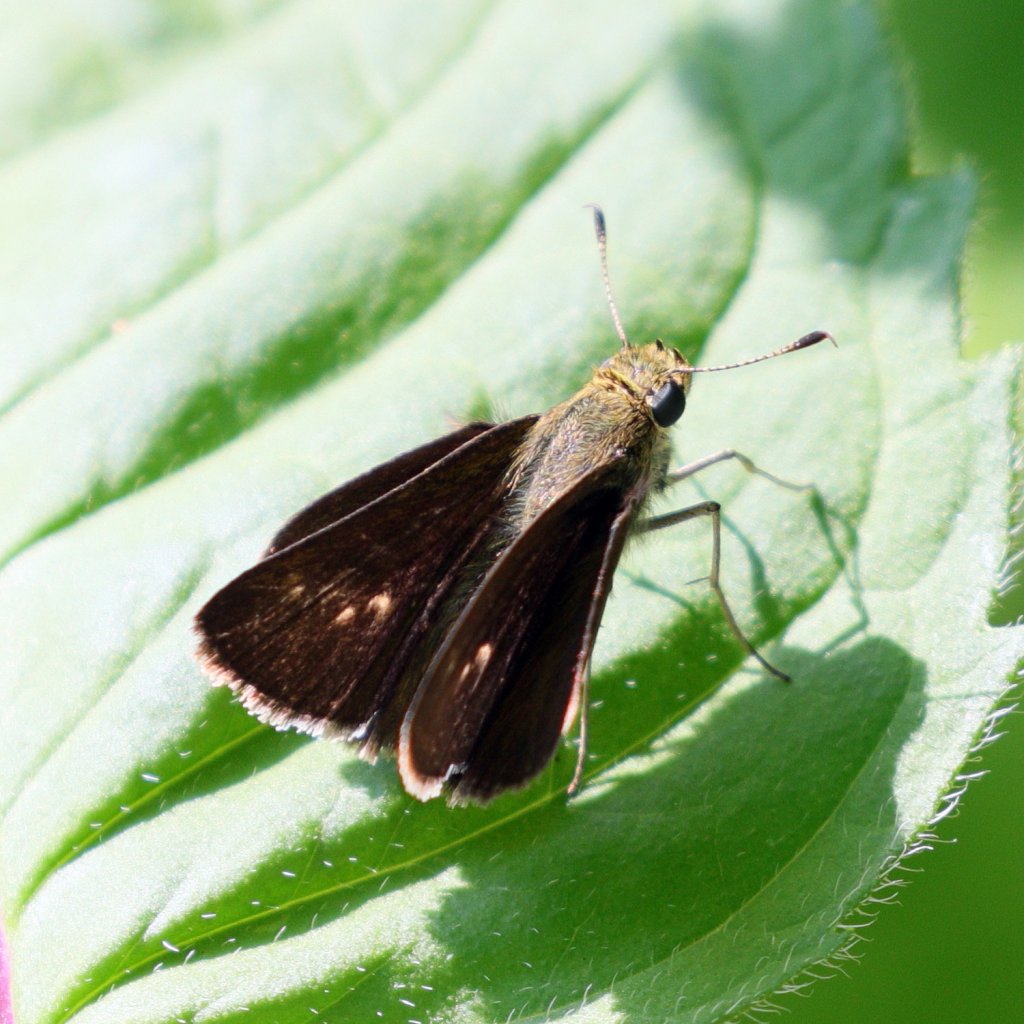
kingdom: Animalia
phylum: Arthropoda
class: Insecta
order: Lepidoptera
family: Hesperiidae
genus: Euphyes
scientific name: Euphyes vestris
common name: Dun Skipper
